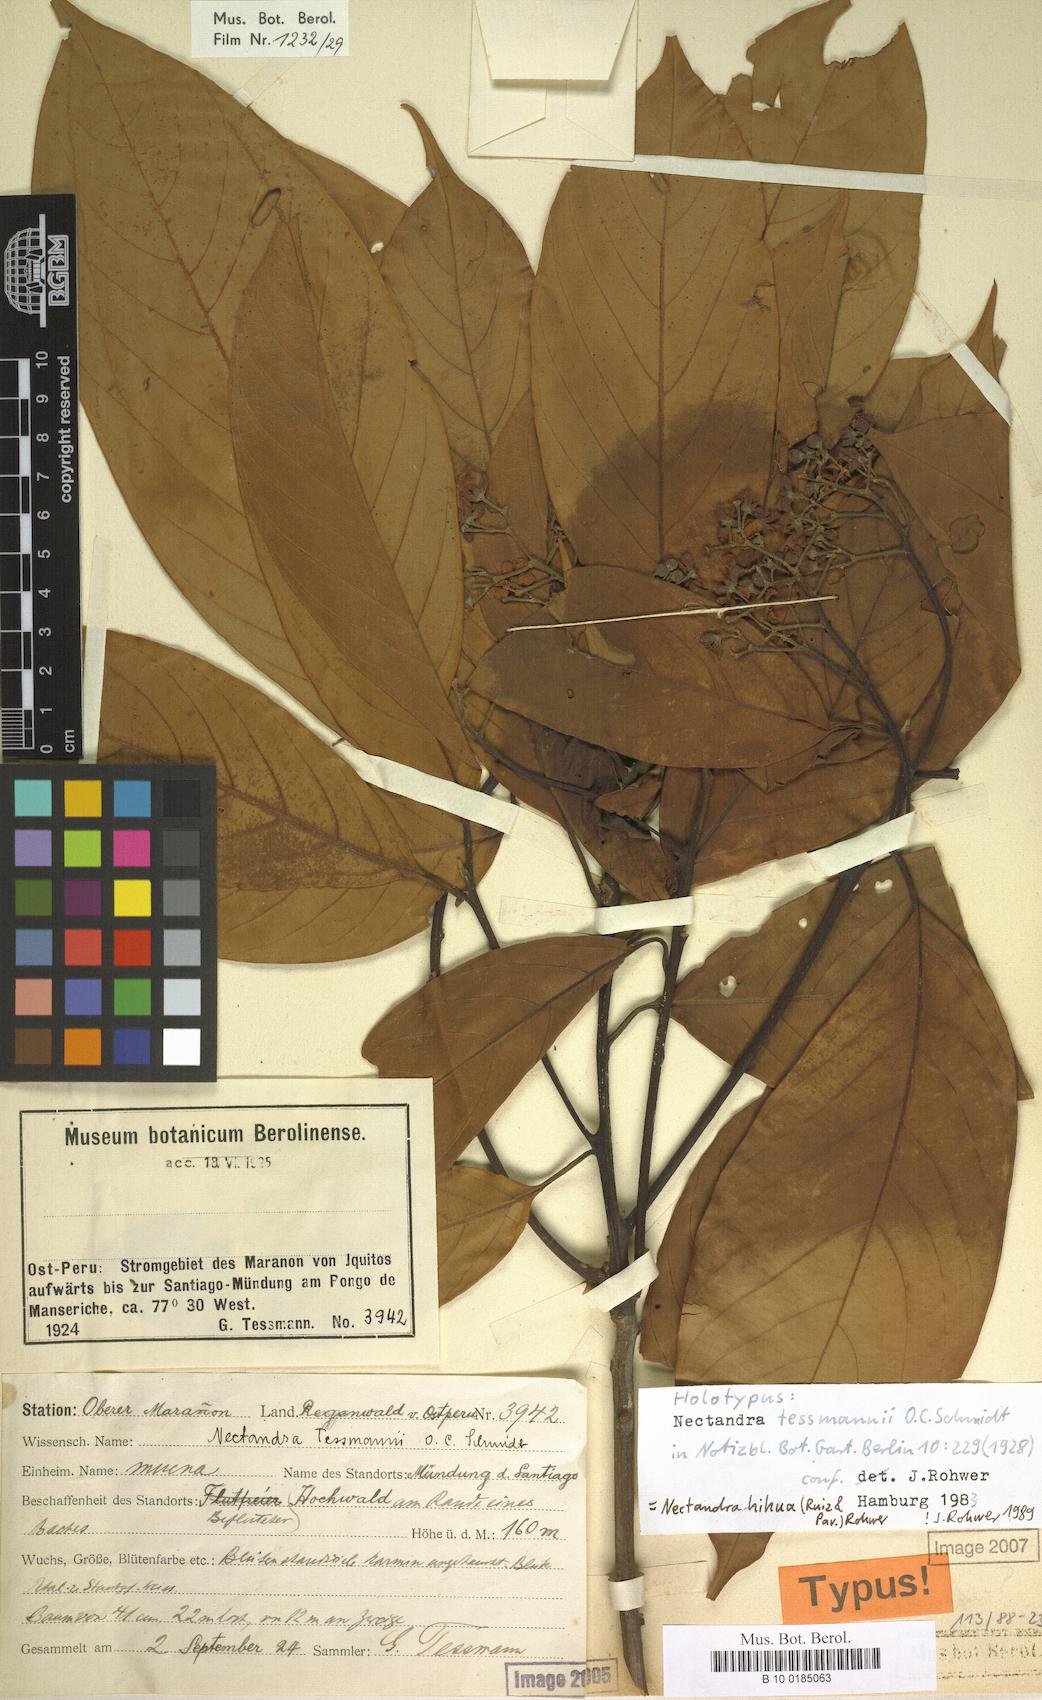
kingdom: Plantae
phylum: Tracheophyta
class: Magnoliopsida
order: Laurales
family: Lauraceae
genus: Nectandra
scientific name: Nectandra hihua
